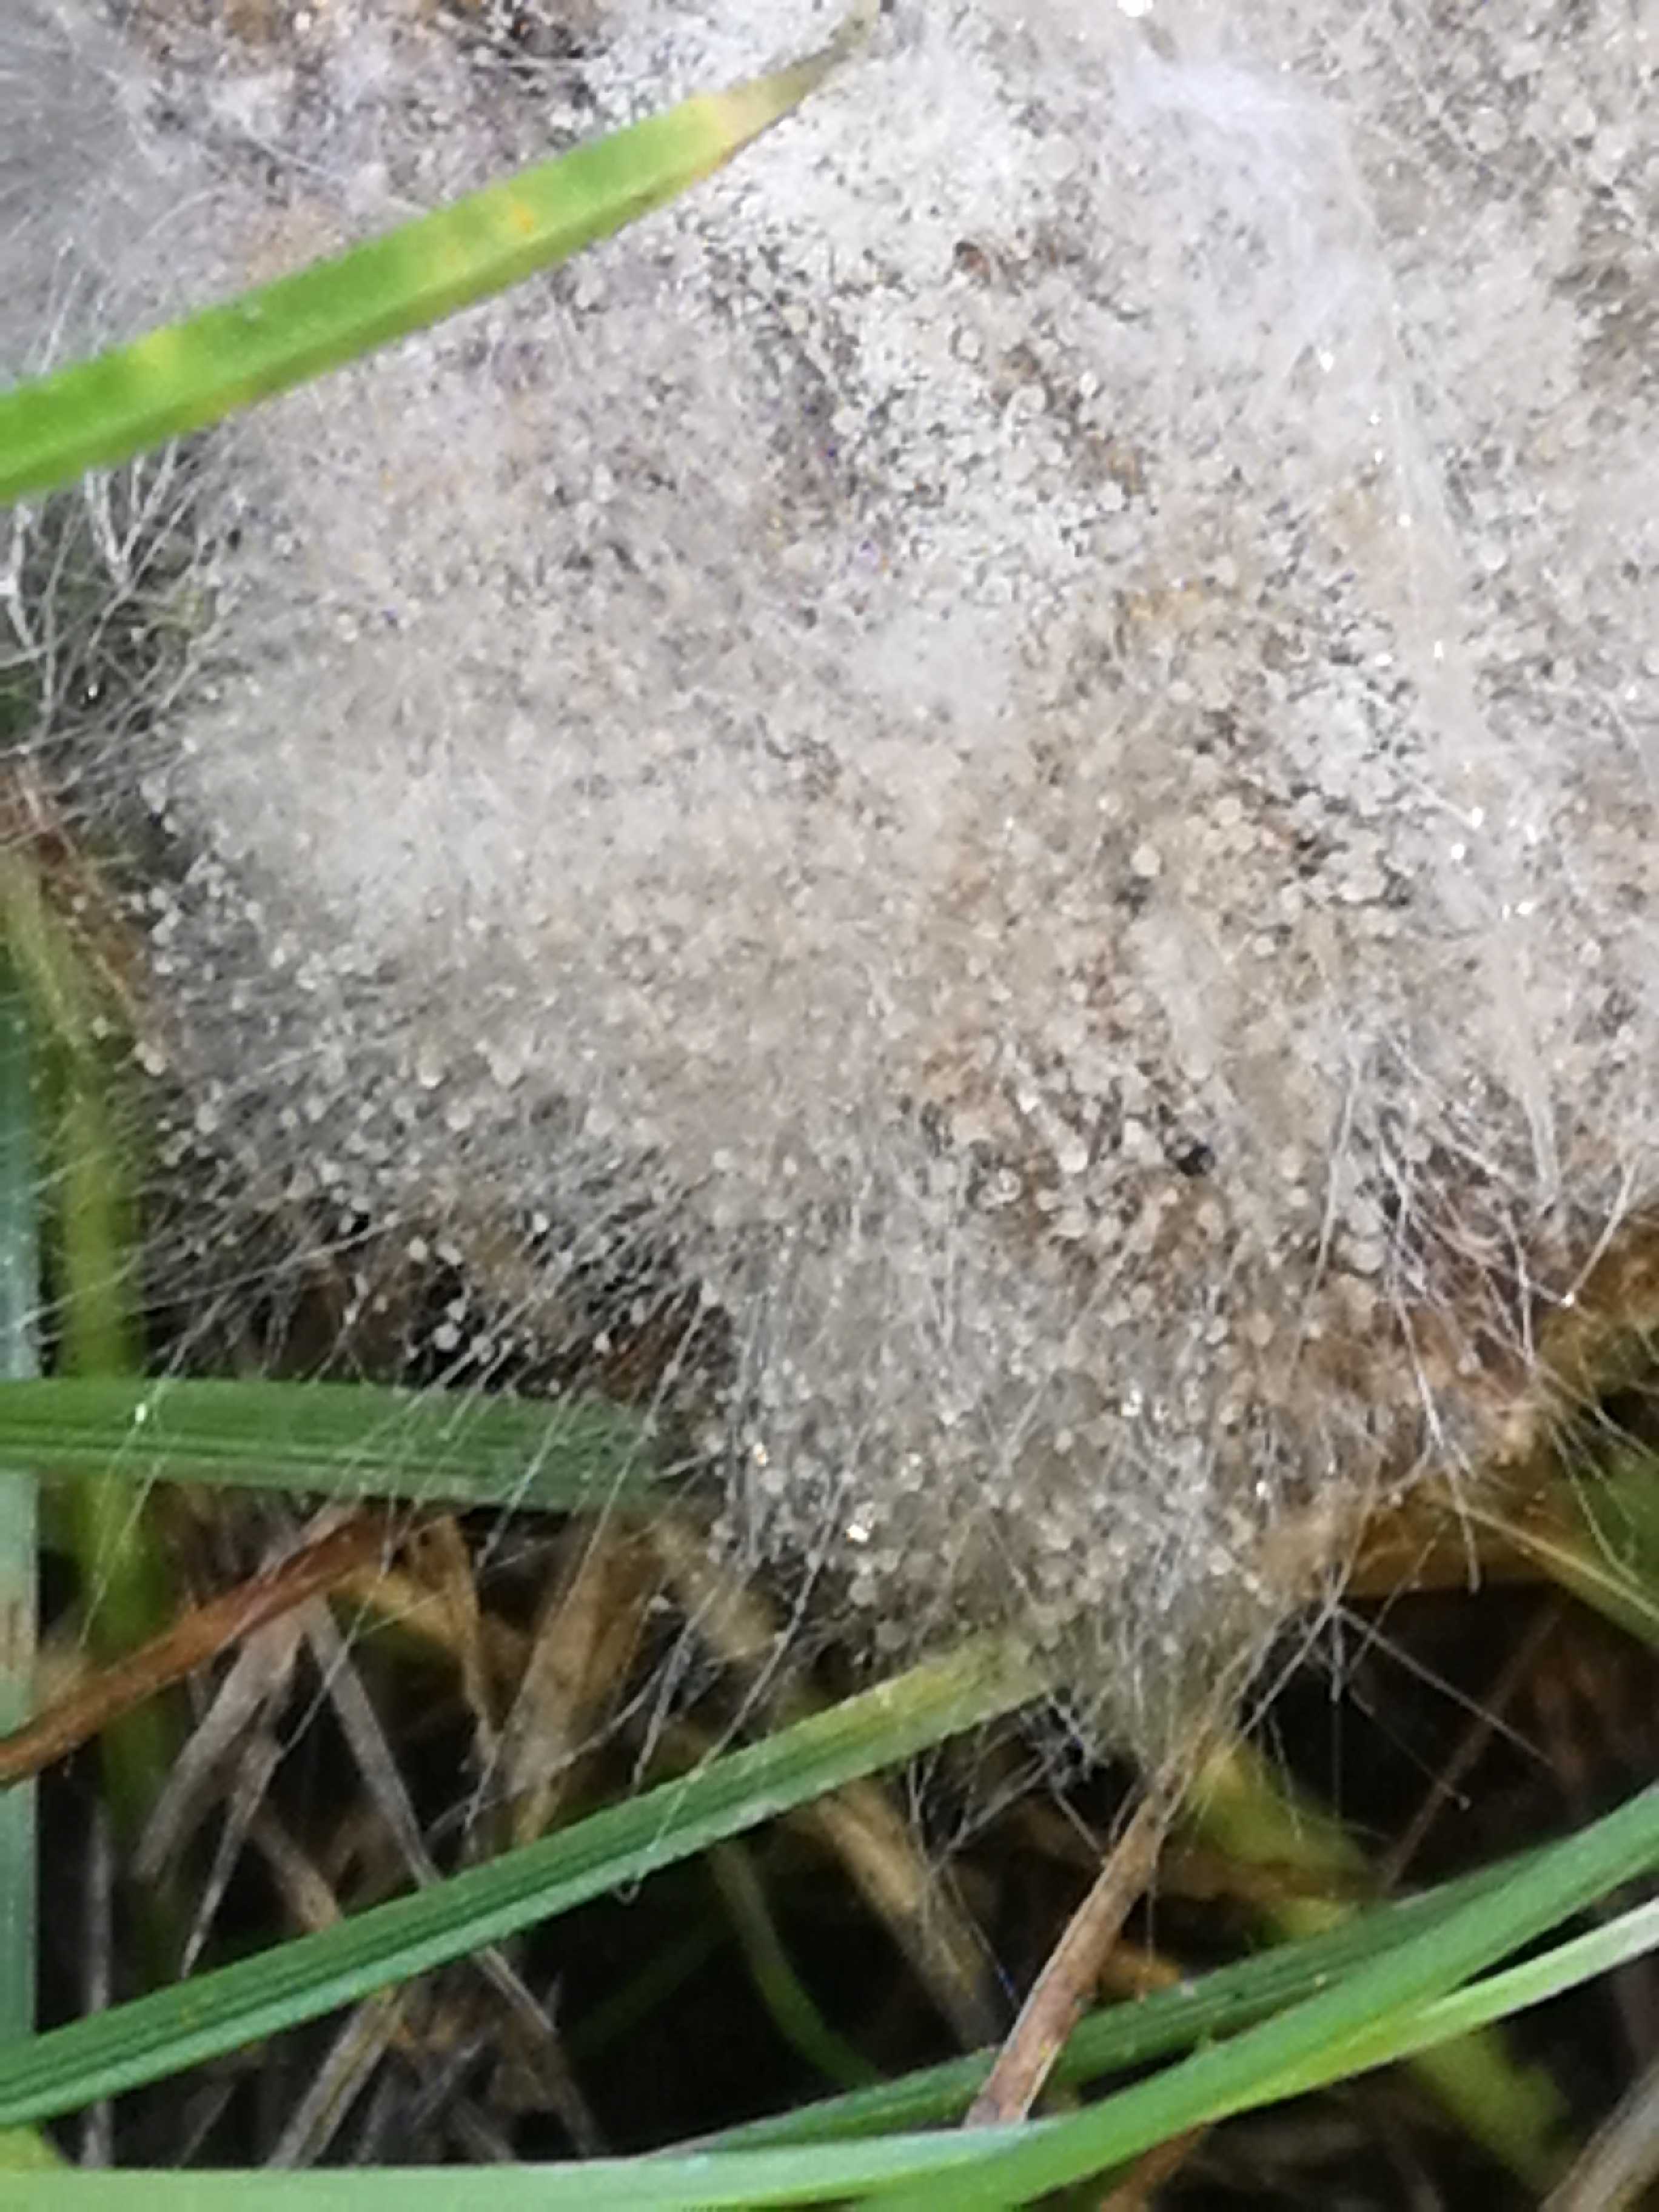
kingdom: Fungi
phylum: Mucoromycota
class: Mucoromycetes
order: Mucorales
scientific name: Mucorales
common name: mugordenen
